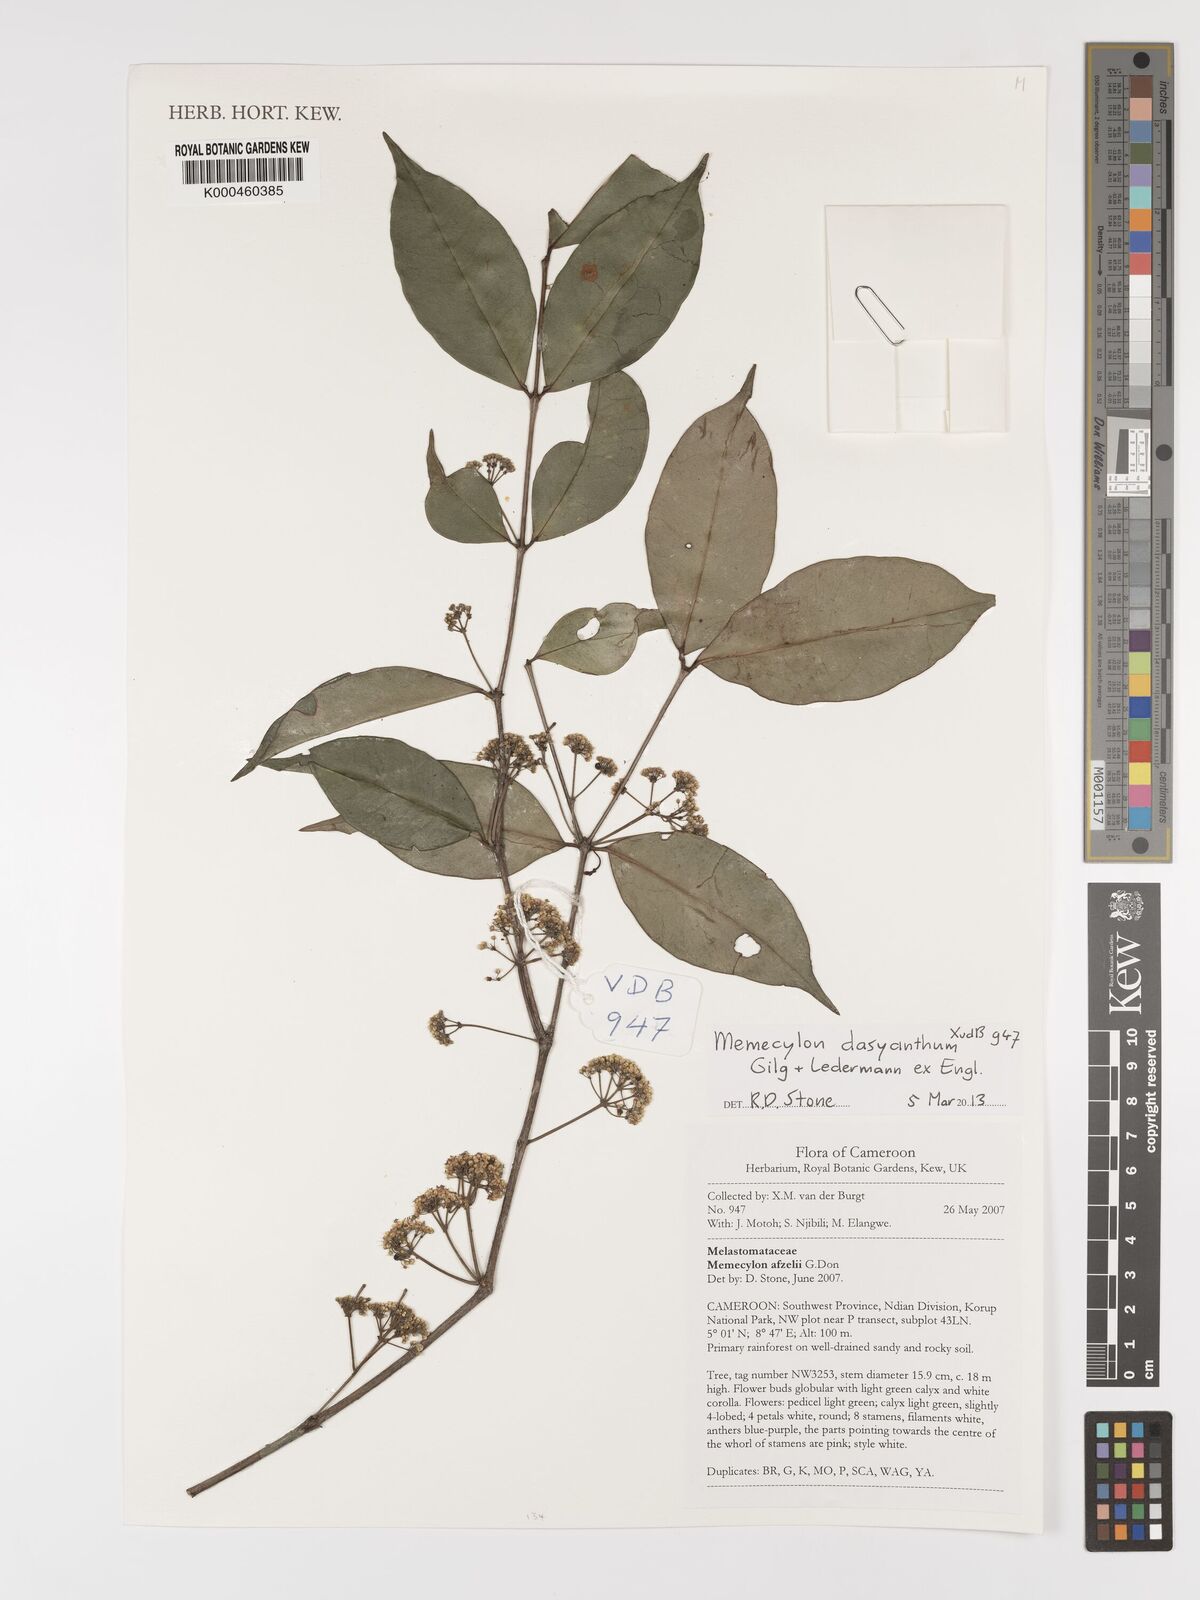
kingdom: Plantae
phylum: Tracheophyta
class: Magnoliopsida
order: Myrtales
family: Melastomataceae
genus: Memecylon
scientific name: Memecylon dasyanthum
